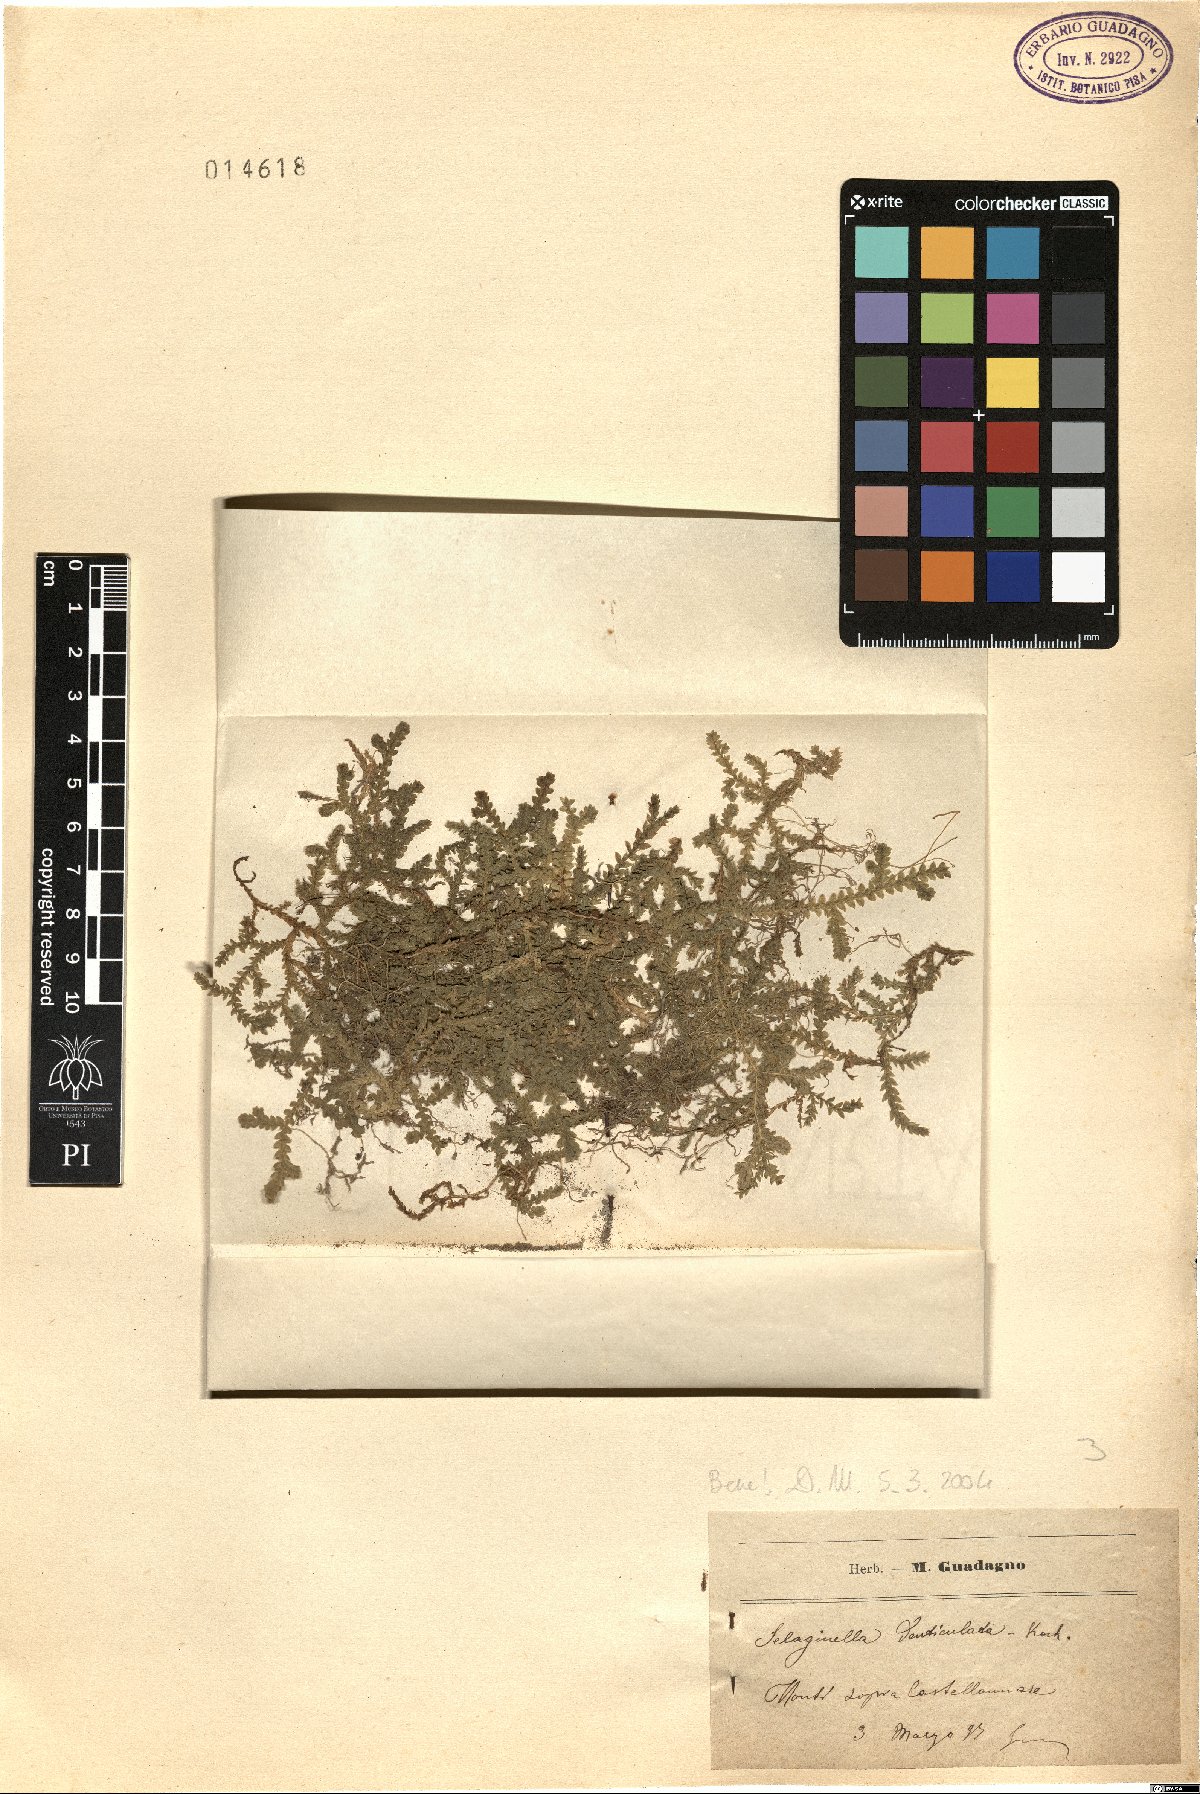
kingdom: Plantae
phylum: Tracheophyta
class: Lycopodiopsida
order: Selaginellales
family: Selaginellaceae
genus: Selaginella
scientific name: Selaginella denticulata
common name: Toothed-leaved clubmoss
